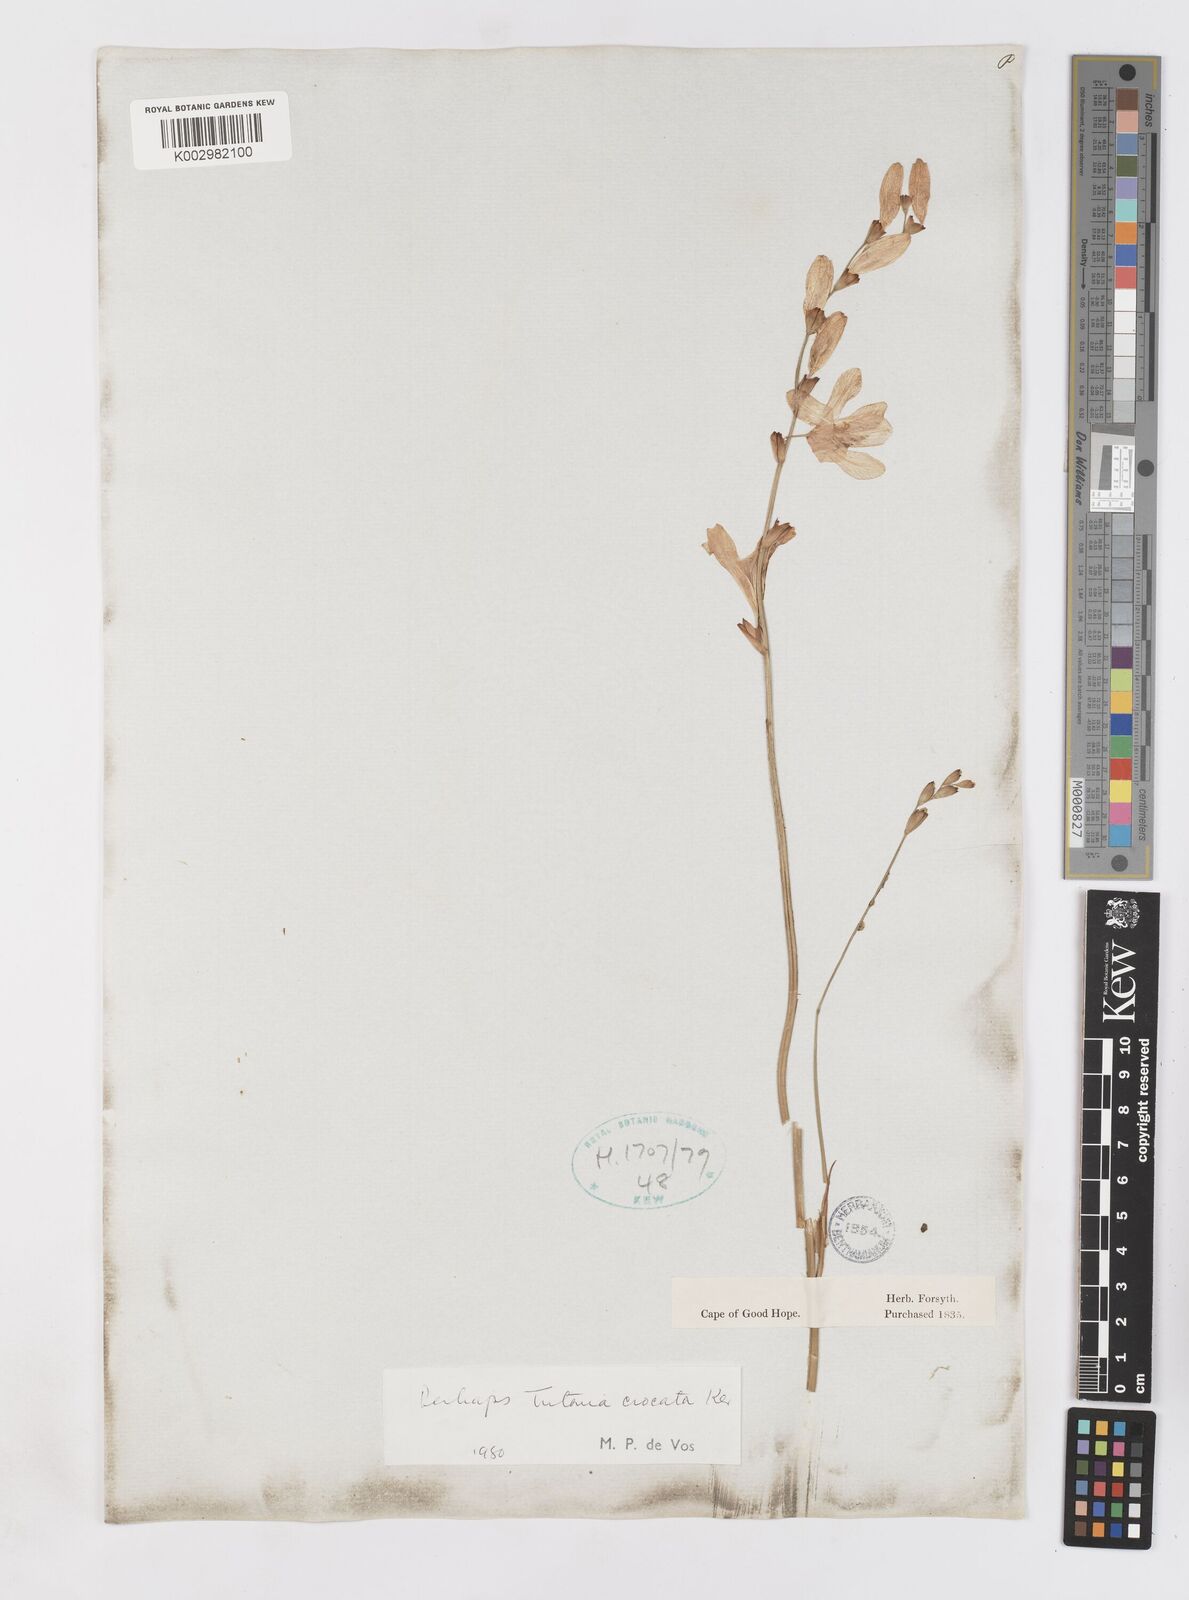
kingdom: Plantae
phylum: Tracheophyta
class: Liliopsida
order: Asparagales
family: Iridaceae
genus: Tritonia
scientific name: Tritonia crocata
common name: Flame-freesia
